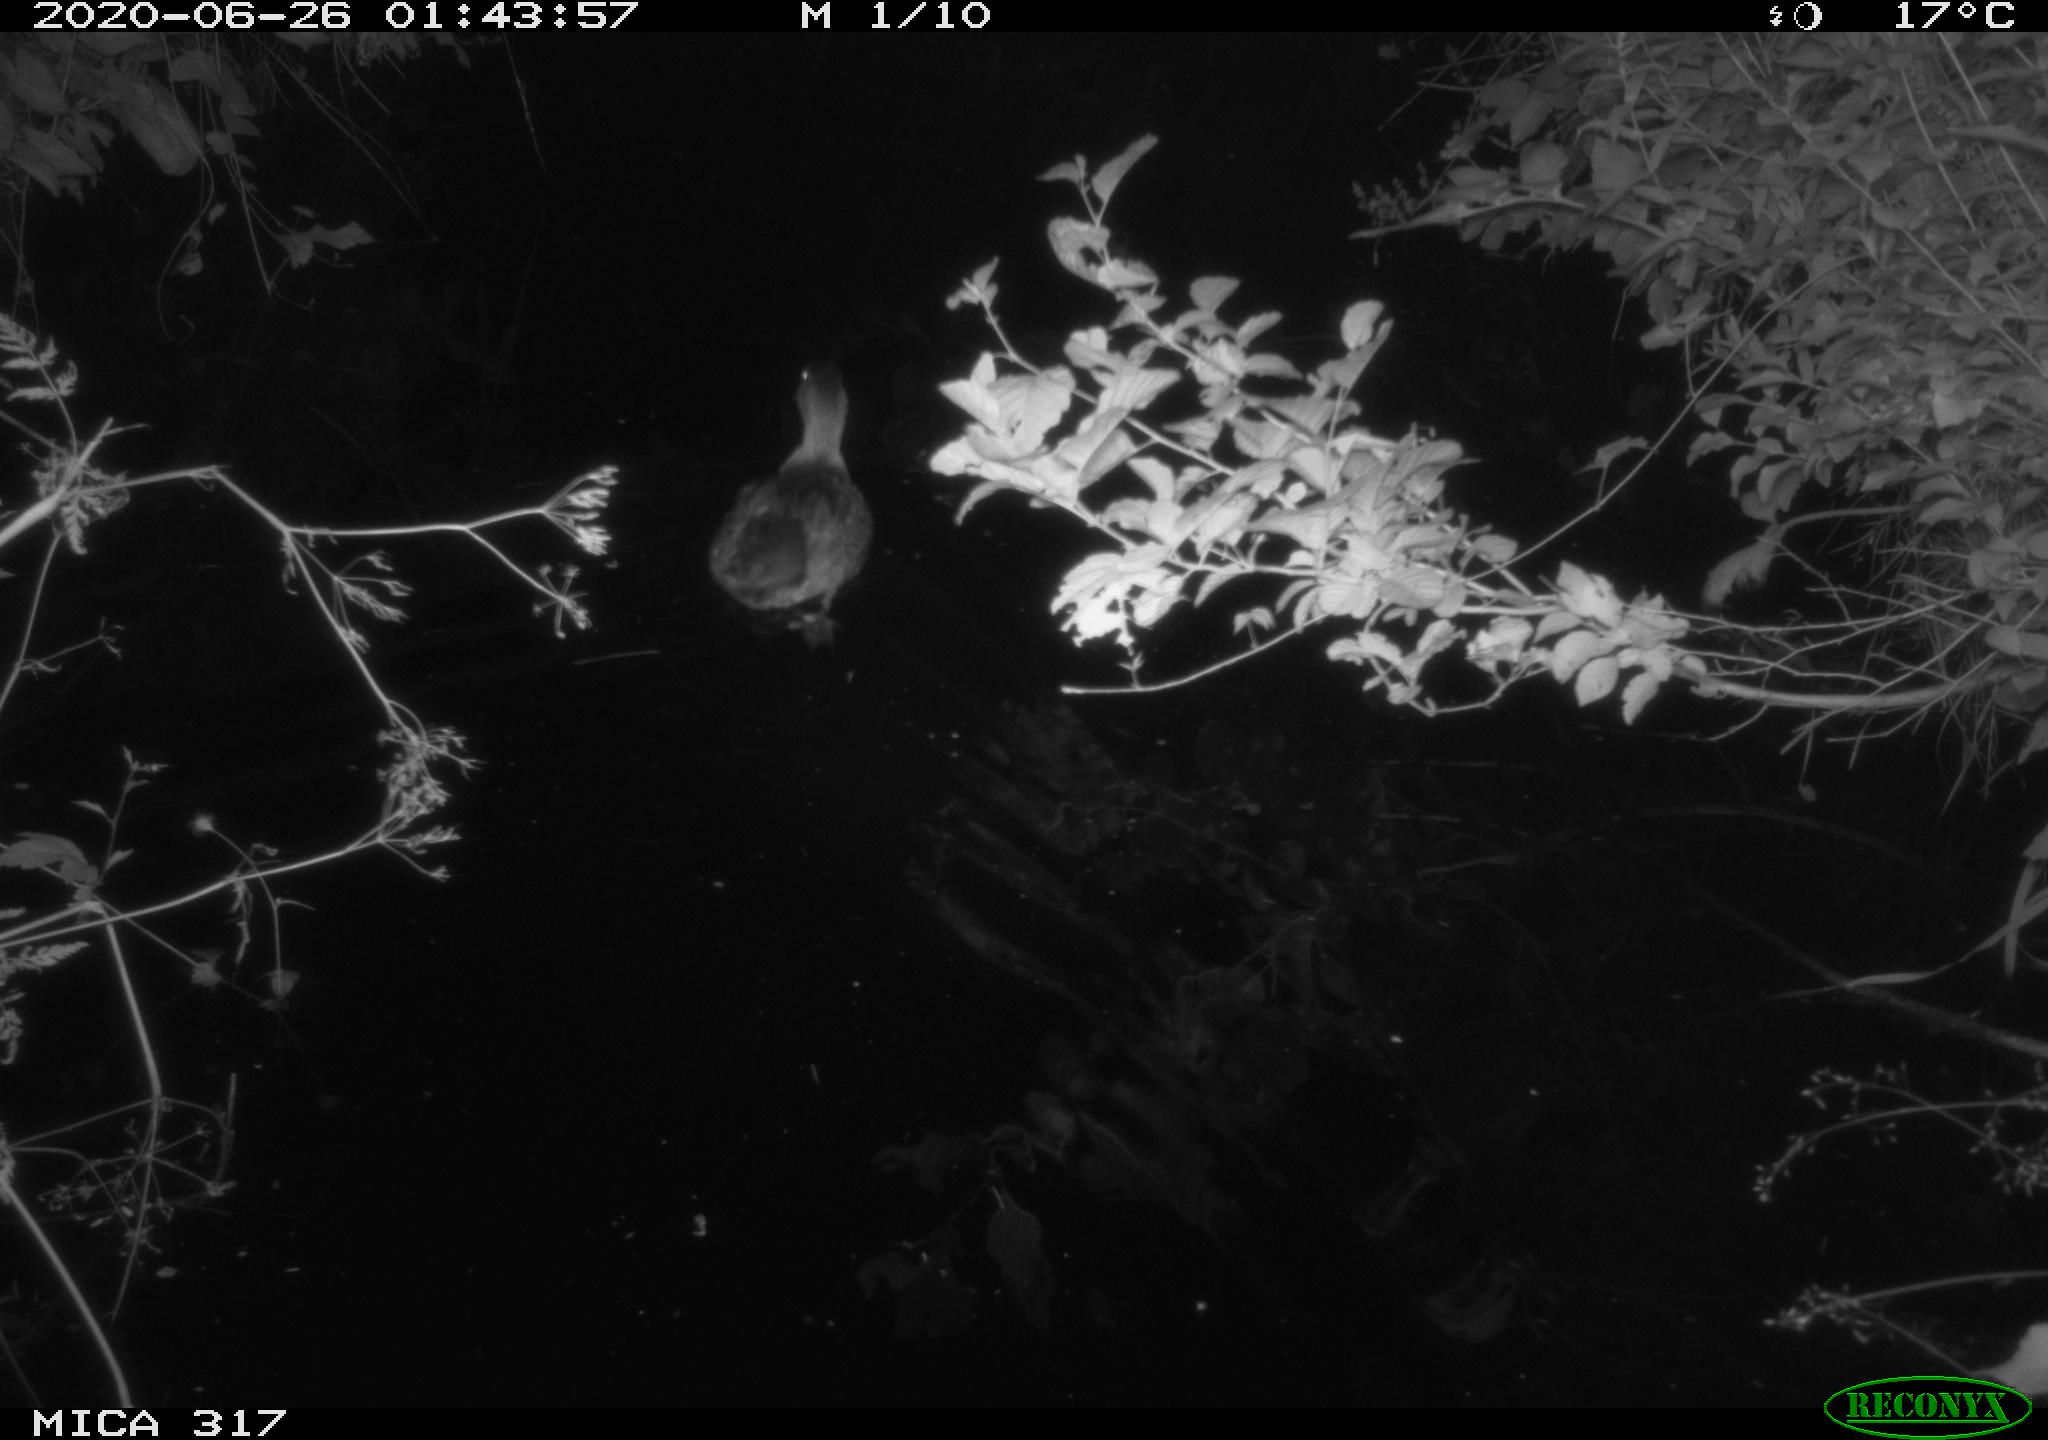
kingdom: Animalia
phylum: Chordata
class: Aves
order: Anseriformes
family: Anatidae
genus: Anas
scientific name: Anas platyrhynchos
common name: Mallard
